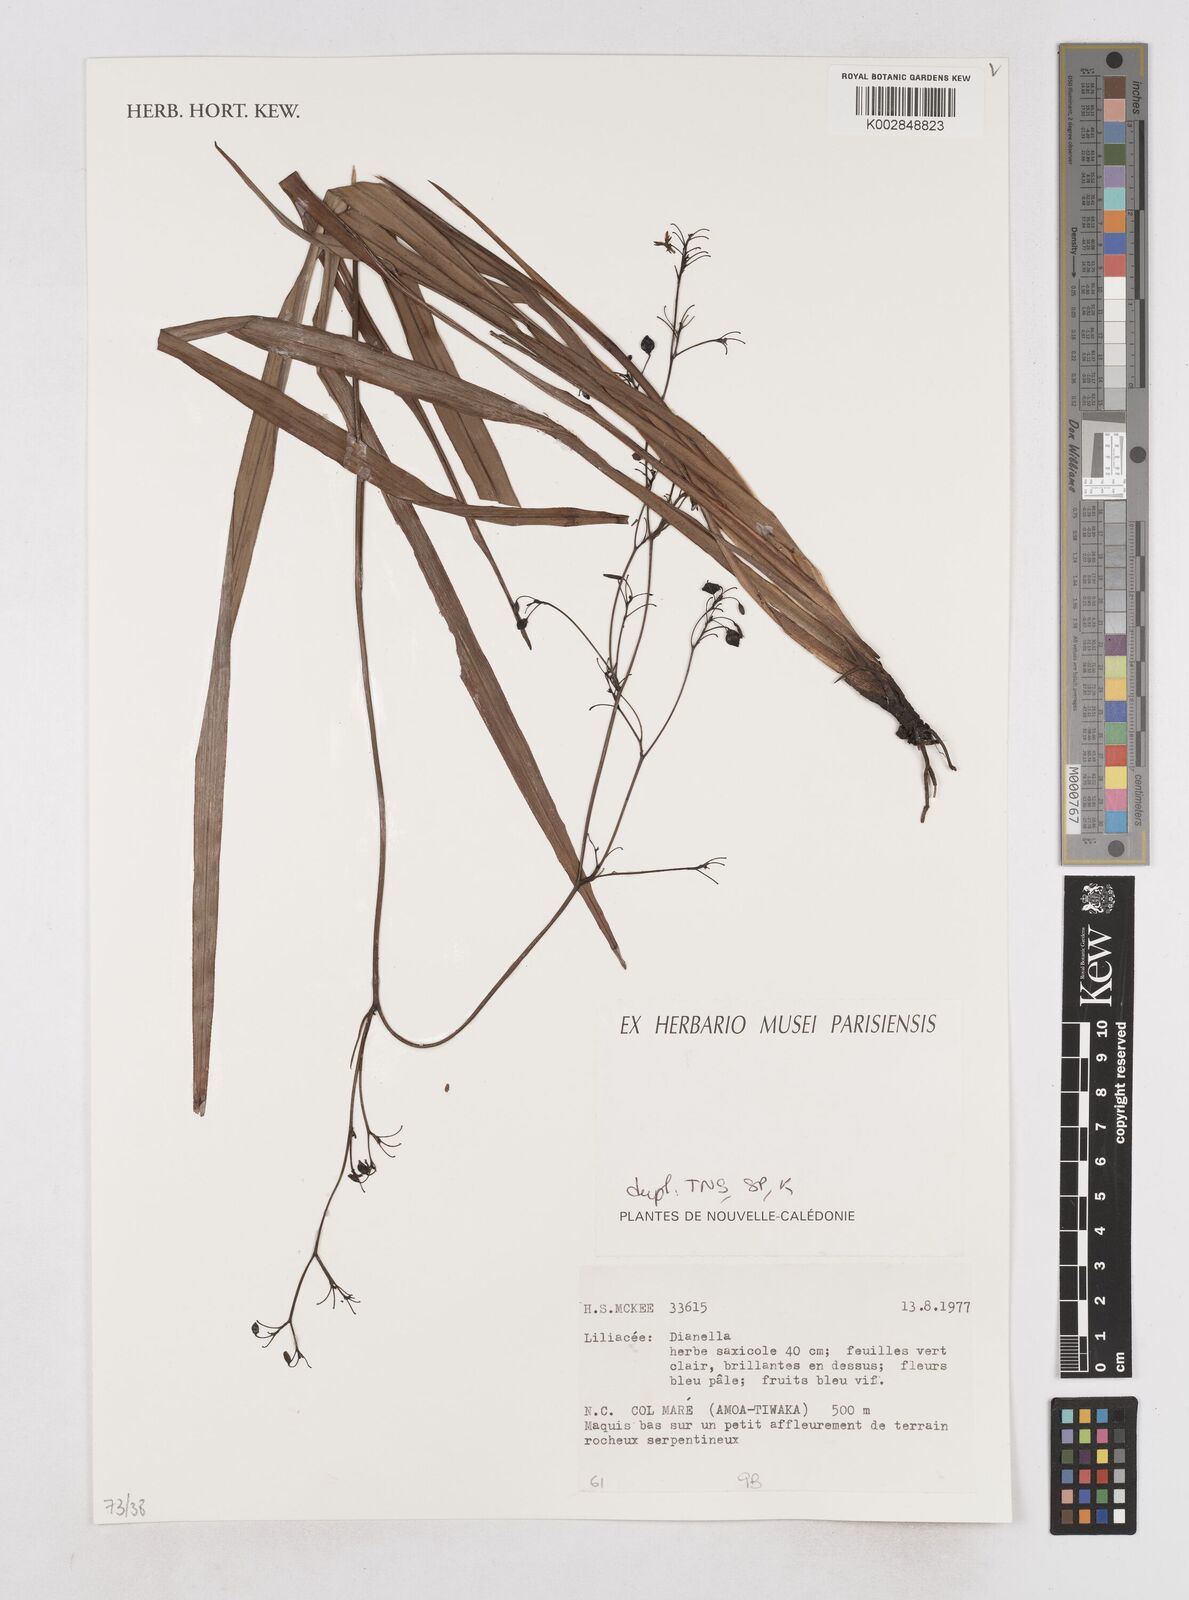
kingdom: Plantae
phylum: Tracheophyta
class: Liliopsida
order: Asparagales
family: Asphodelaceae
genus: Dianella
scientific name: Dianella
